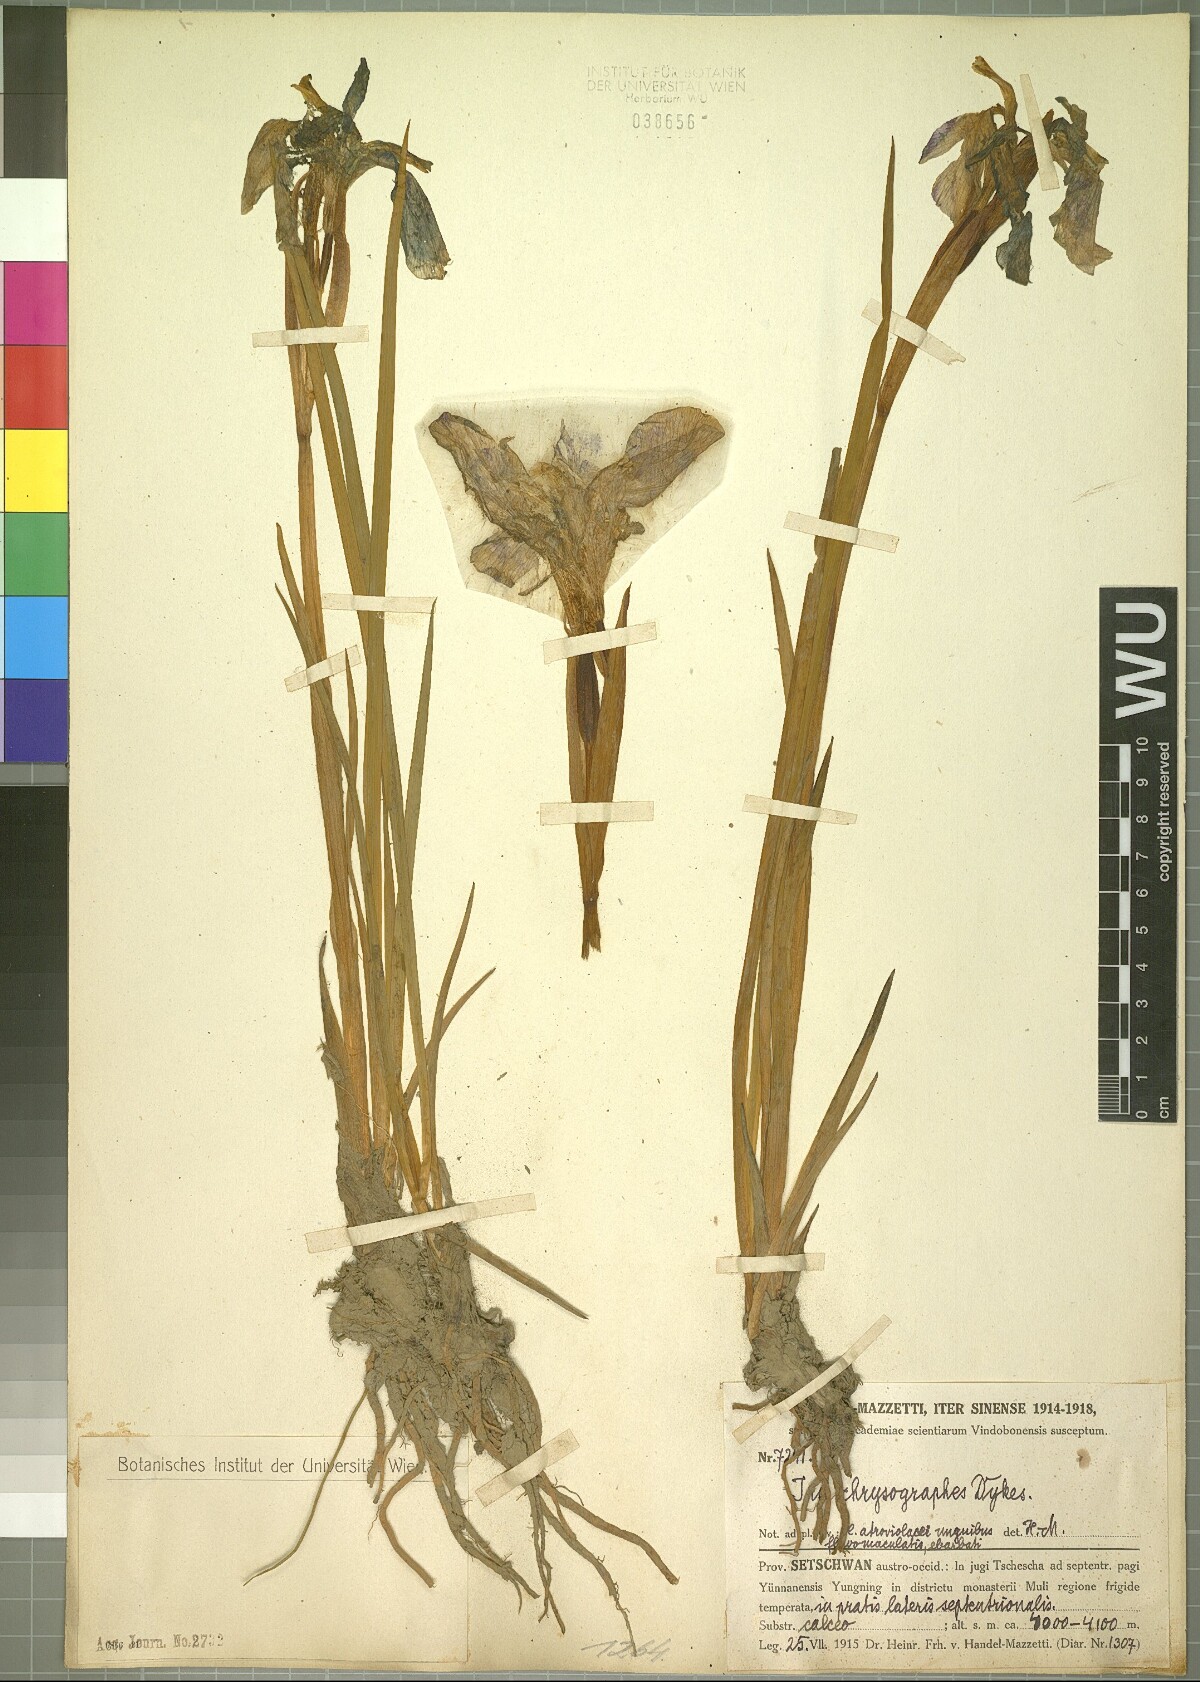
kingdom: Plantae
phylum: Tracheophyta
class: Liliopsida
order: Asparagales
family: Iridaceae
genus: Iris
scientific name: Iris chrysographes
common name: Gold-vein iris
